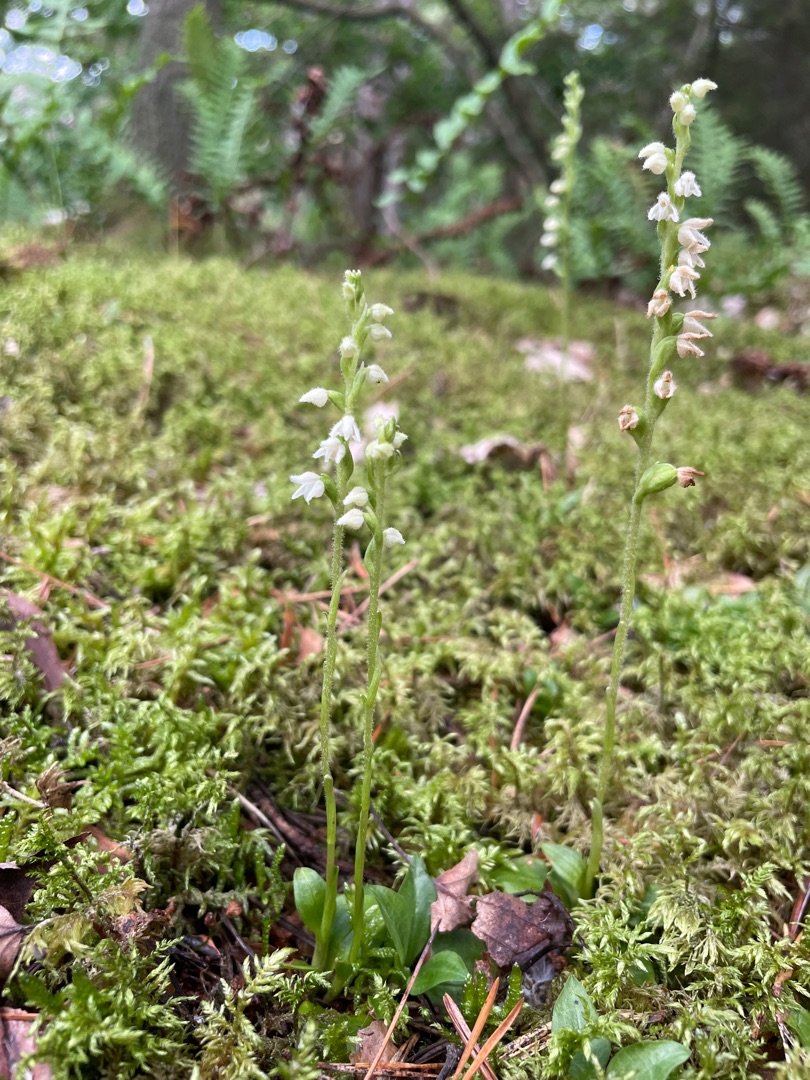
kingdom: Plantae
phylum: Tracheophyta
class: Liliopsida
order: Asparagales
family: Orchidaceae
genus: Goodyera
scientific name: Goodyera repens
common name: Knærod
